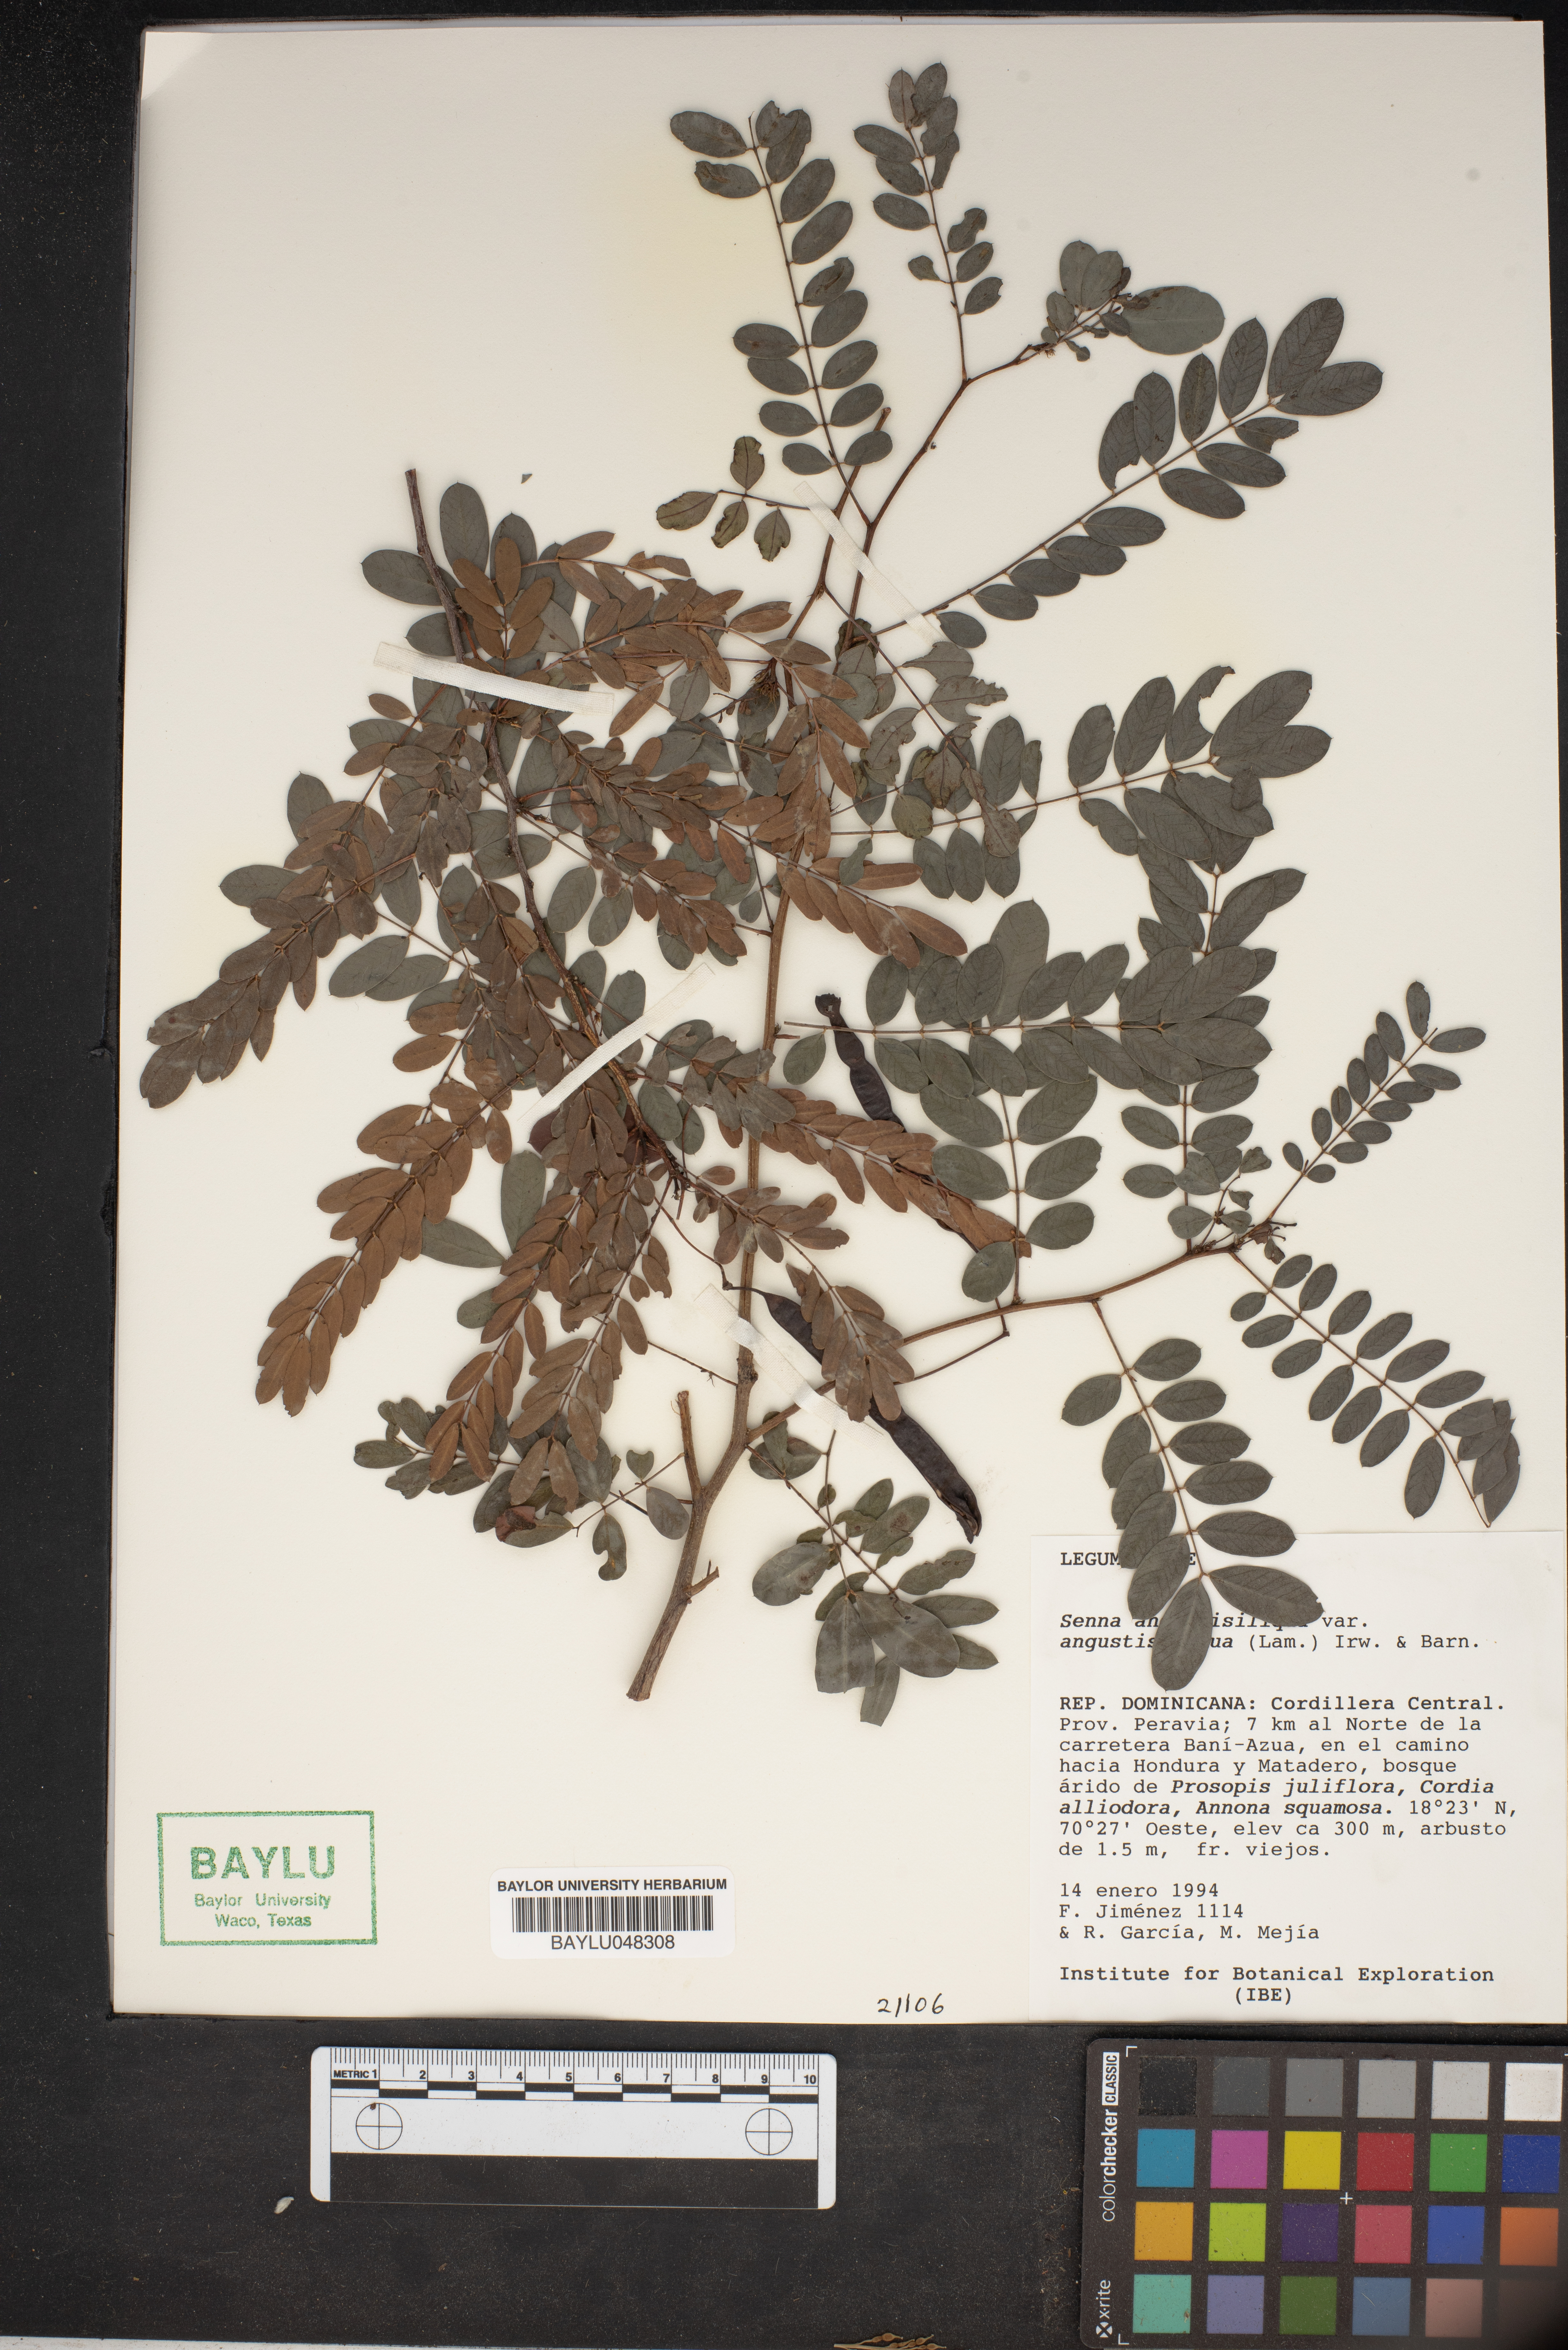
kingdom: Plantae
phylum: Tracheophyta
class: Magnoliopsida
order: Fabales
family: Fabaceae
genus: Senna
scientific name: Senna angustisiliqua
